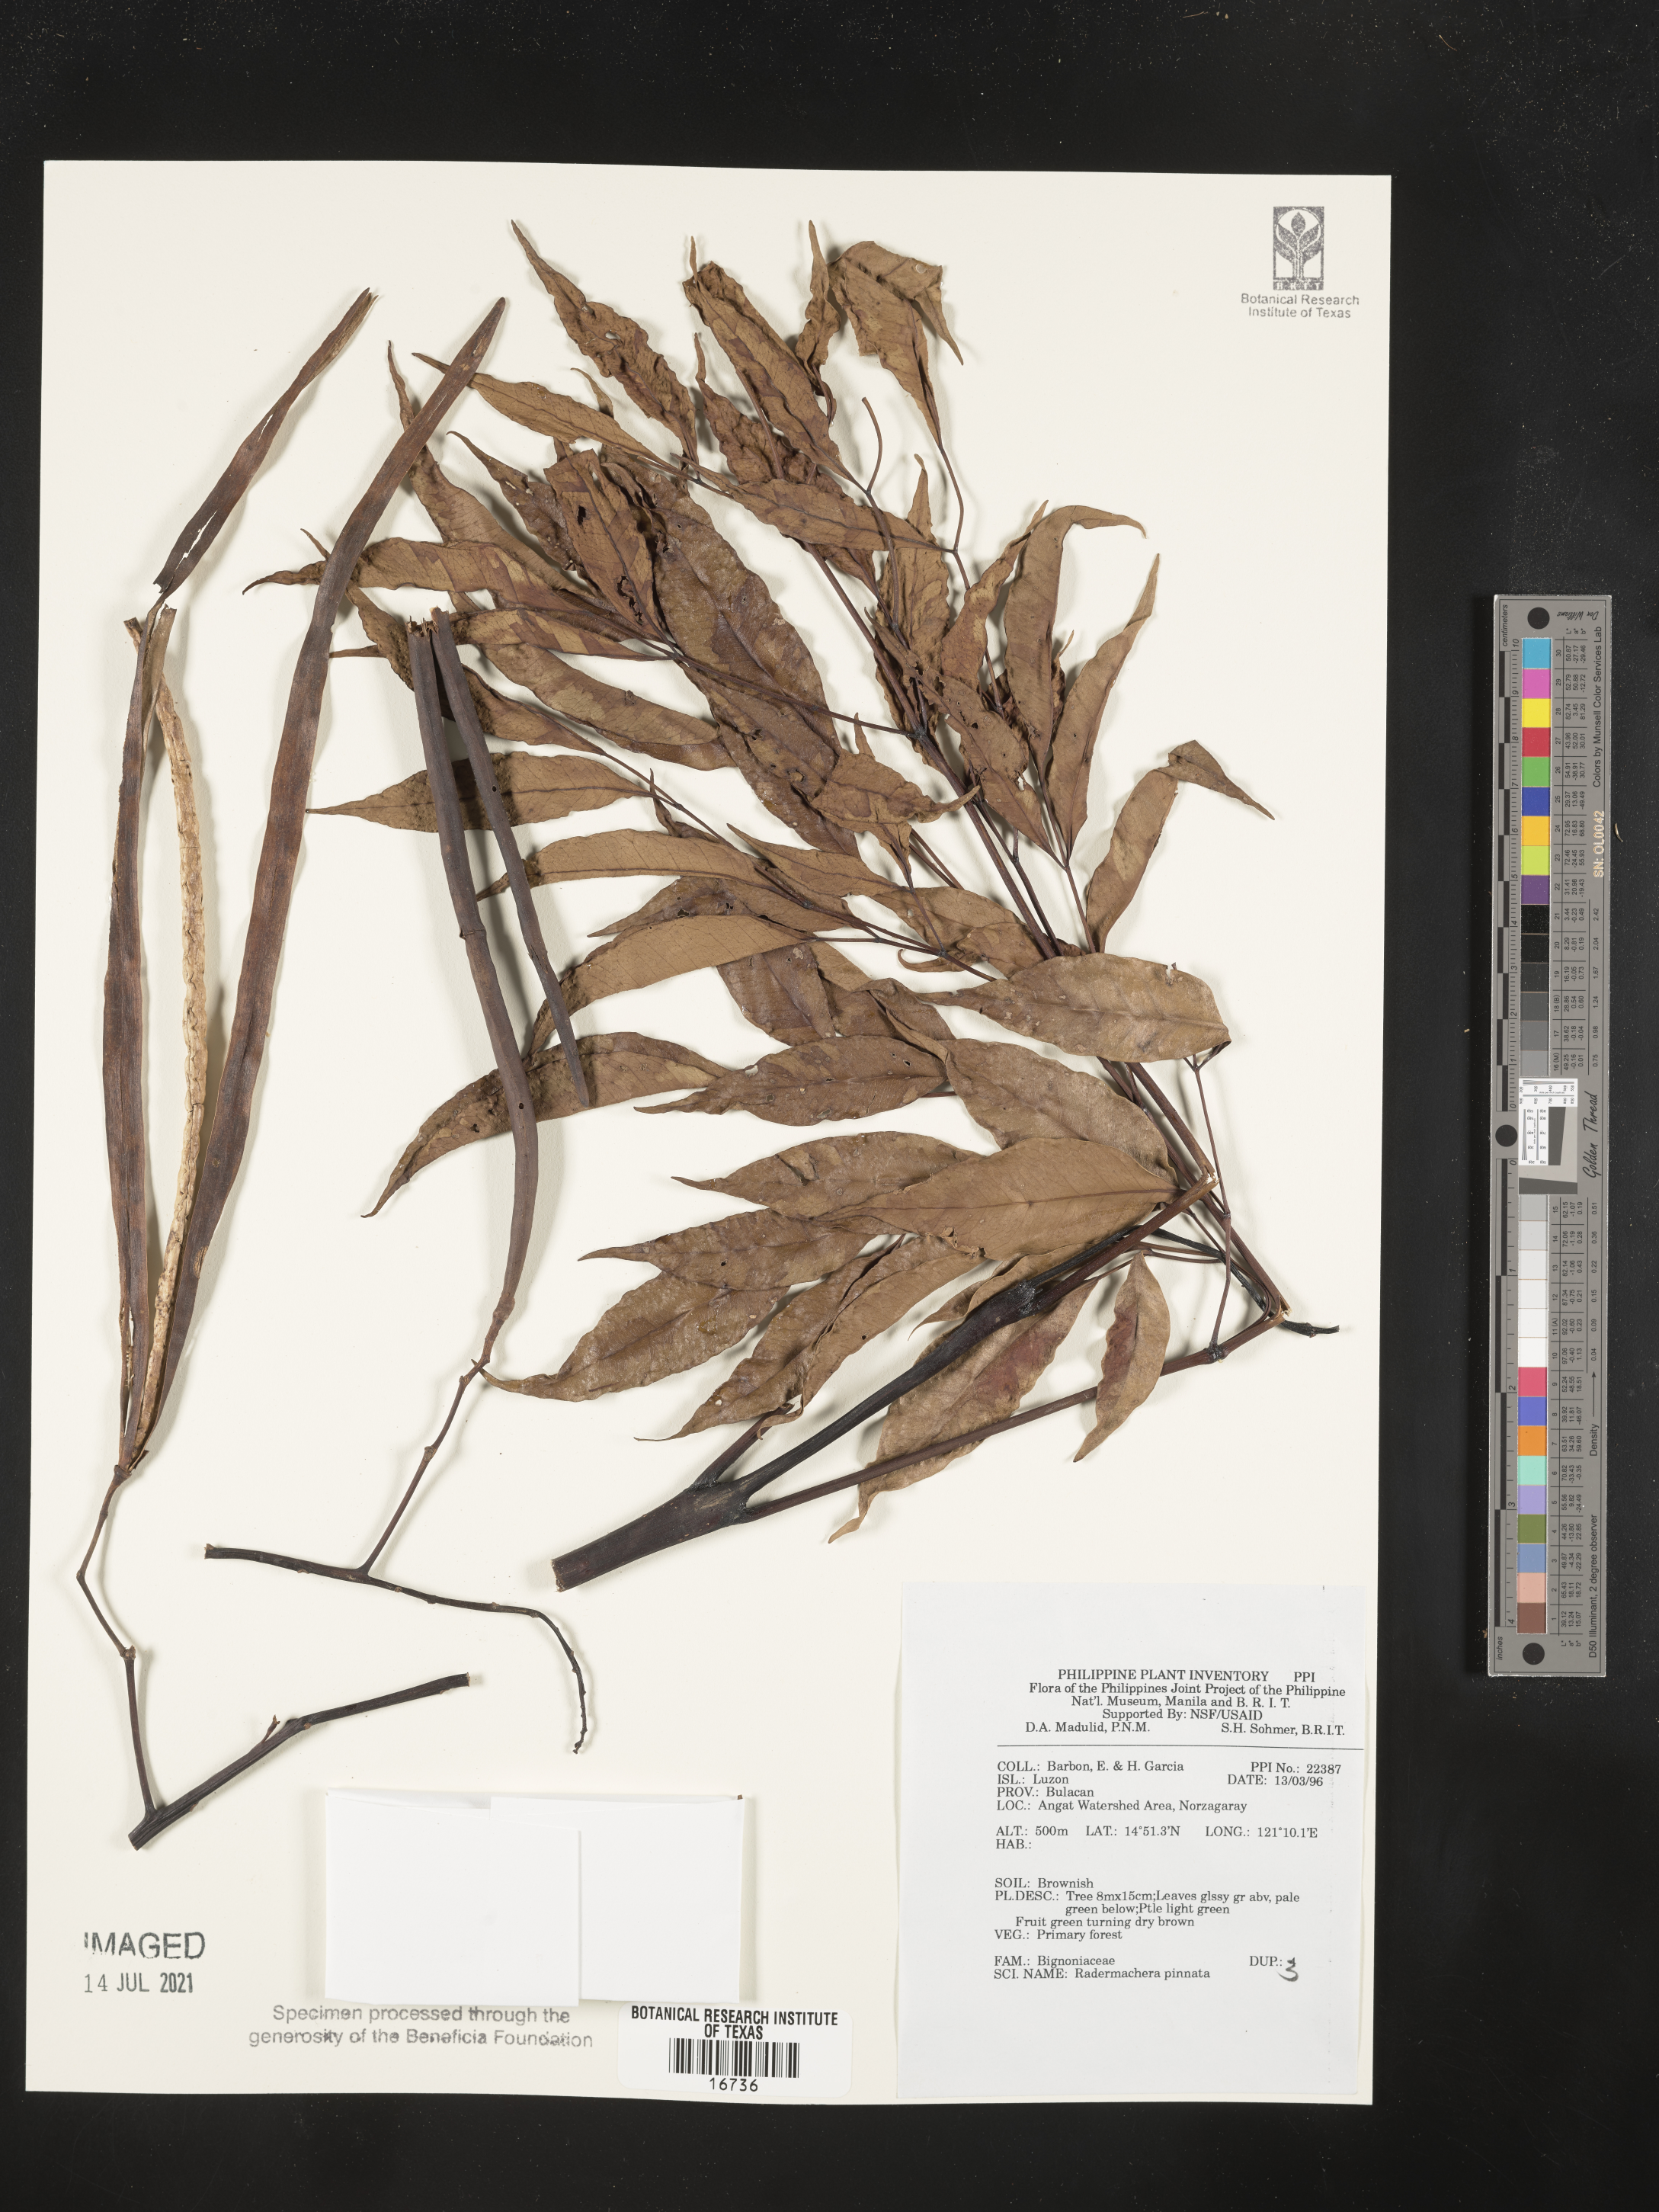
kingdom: Plantae
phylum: Tracheophyta
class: Magnoliopsida
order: Lamiales
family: Bignoniaceae
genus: Radermachera
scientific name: Radermachera pinnata
